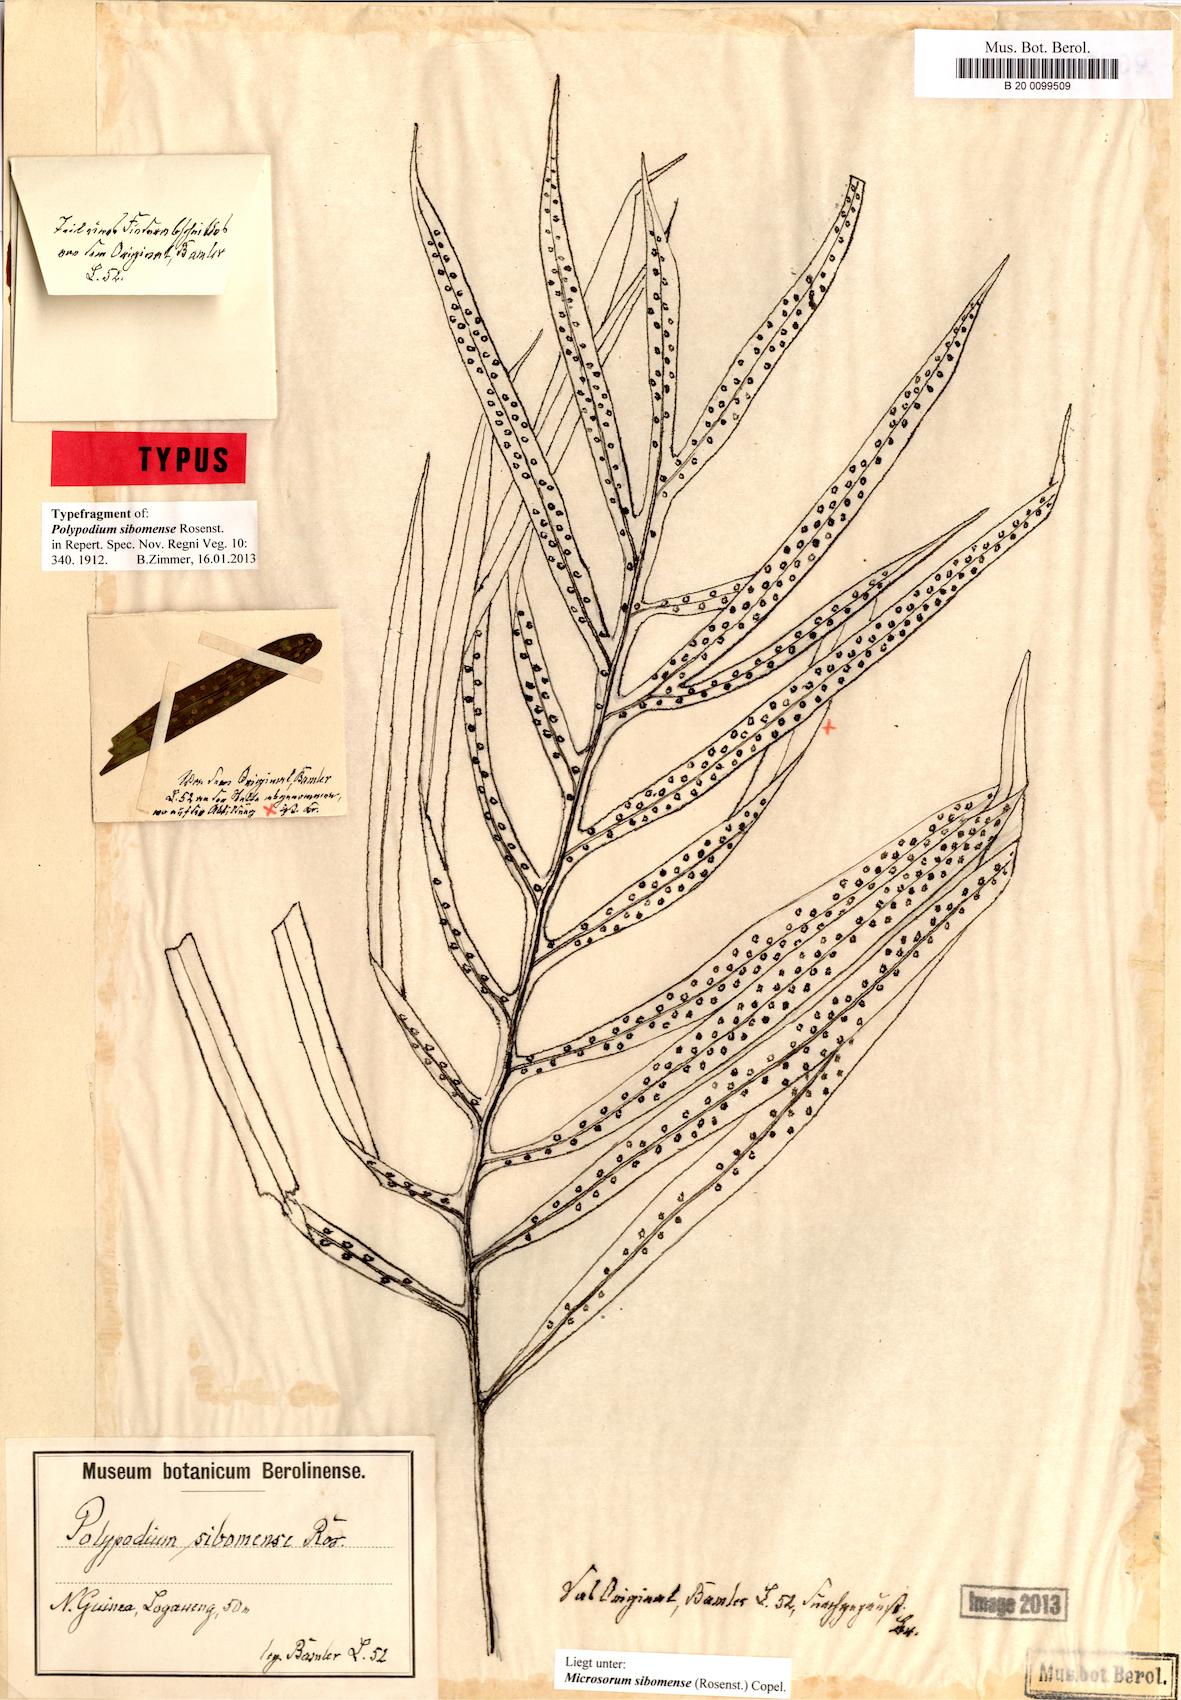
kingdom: Plantae
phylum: Tracheophyta
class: Polypodiopsida
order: Polypodiales
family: Polypodiaceae
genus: Microsorum
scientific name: Microsorum sibomense
